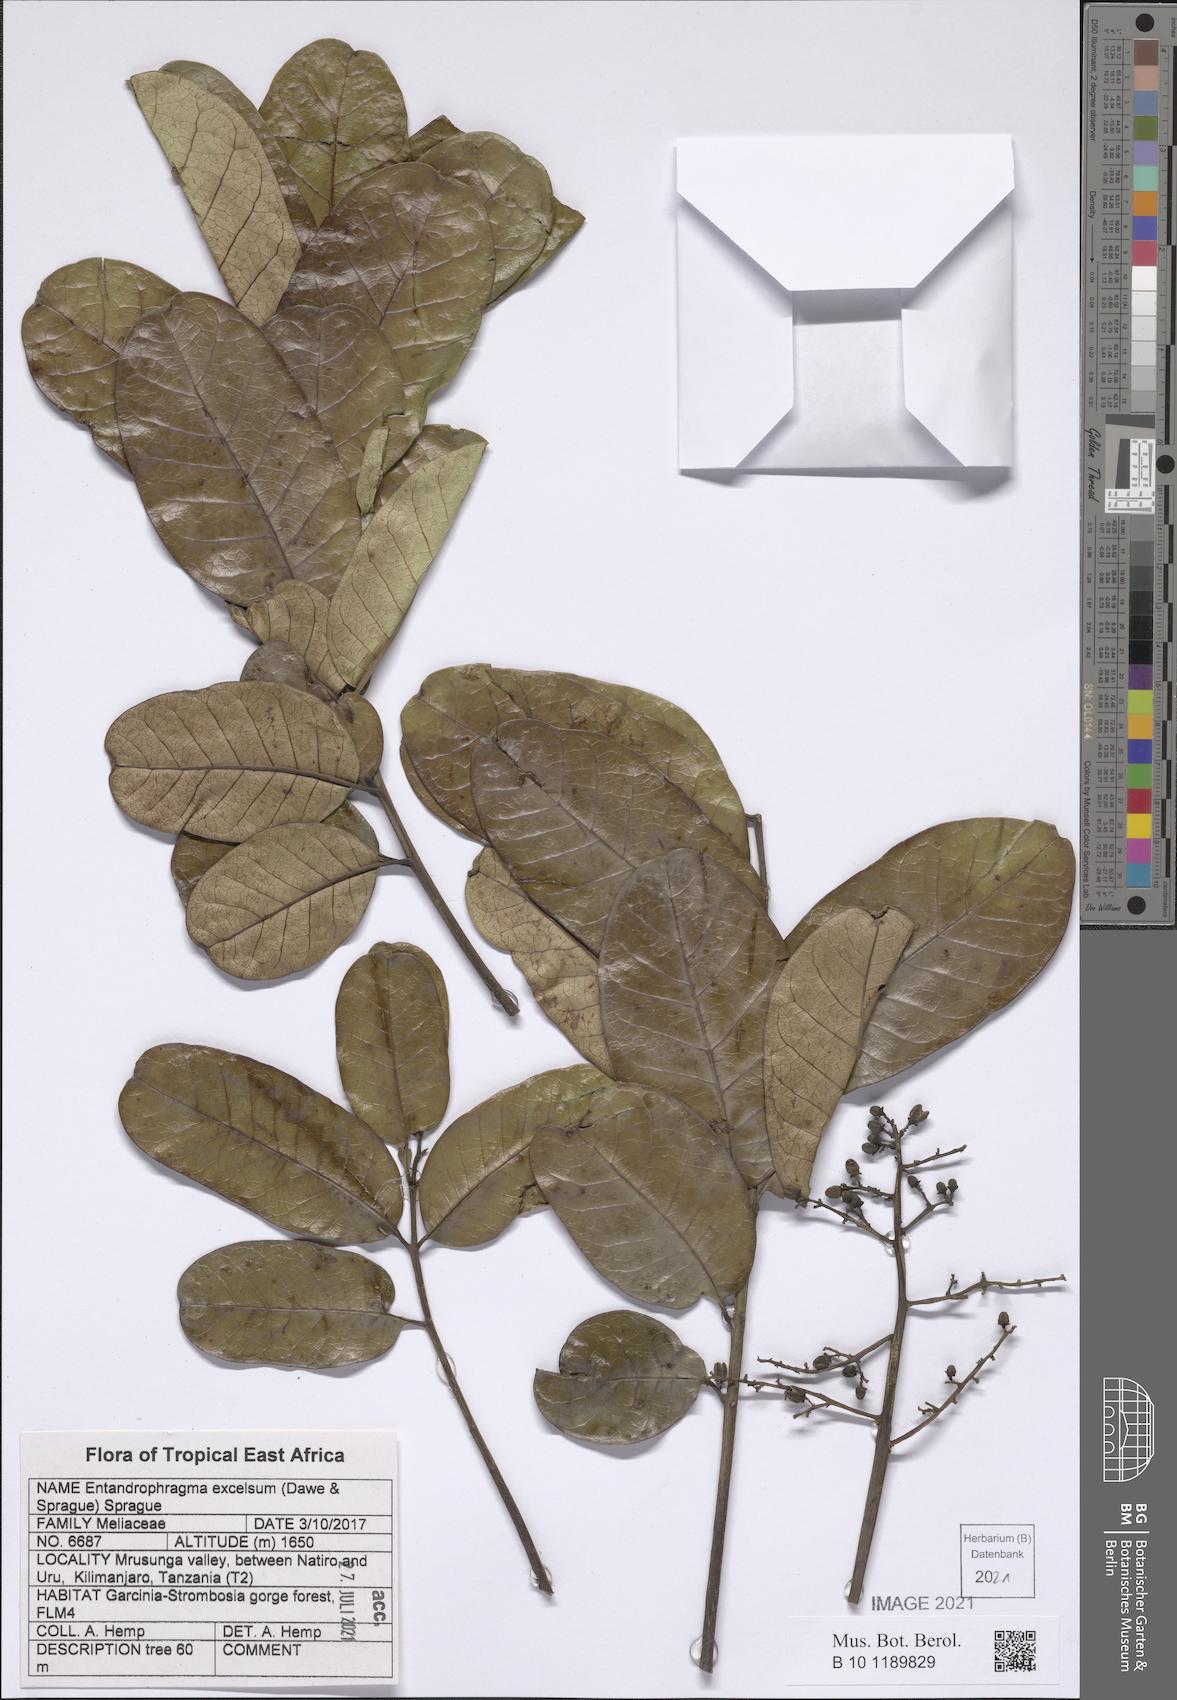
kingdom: Plantae
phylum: Tracheophyta
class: Magnoliopsida
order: Sapindales
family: Meliaceae
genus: Entandrophragma
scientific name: Entandrophragma excelsum
